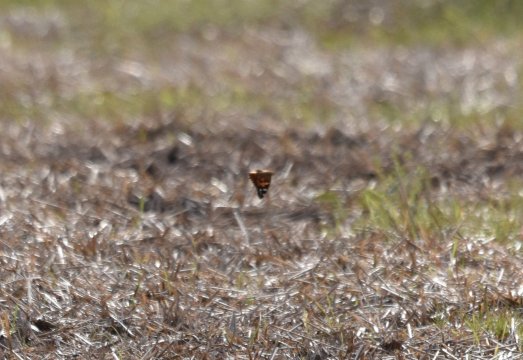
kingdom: Animalia
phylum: Arthropoda
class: Insecta
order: Lepidoptera
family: Nymphalidae
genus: Vanessa
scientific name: Vanessa cardui
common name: Painted Lady
